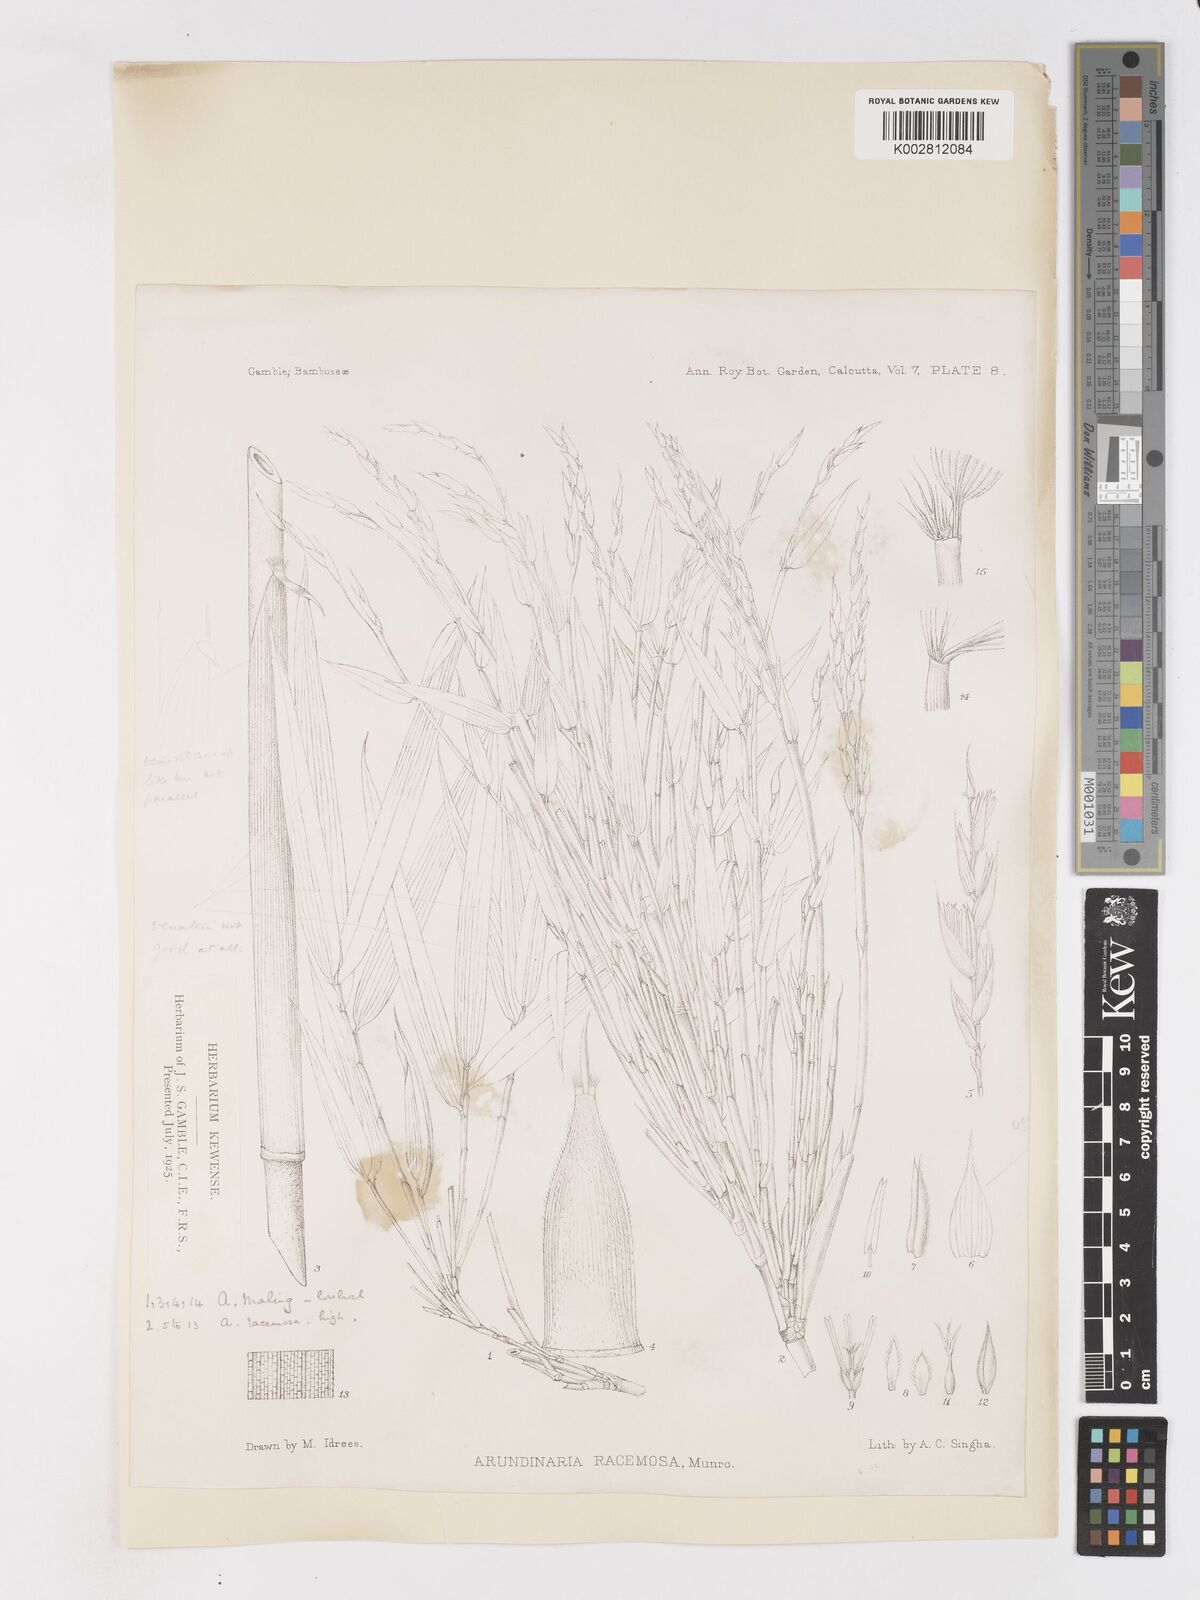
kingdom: Plantae
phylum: Tracheophyta
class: Liliopsida
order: Poales
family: Poaceae
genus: Sarocalamus
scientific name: Sarocalamus racemosus
